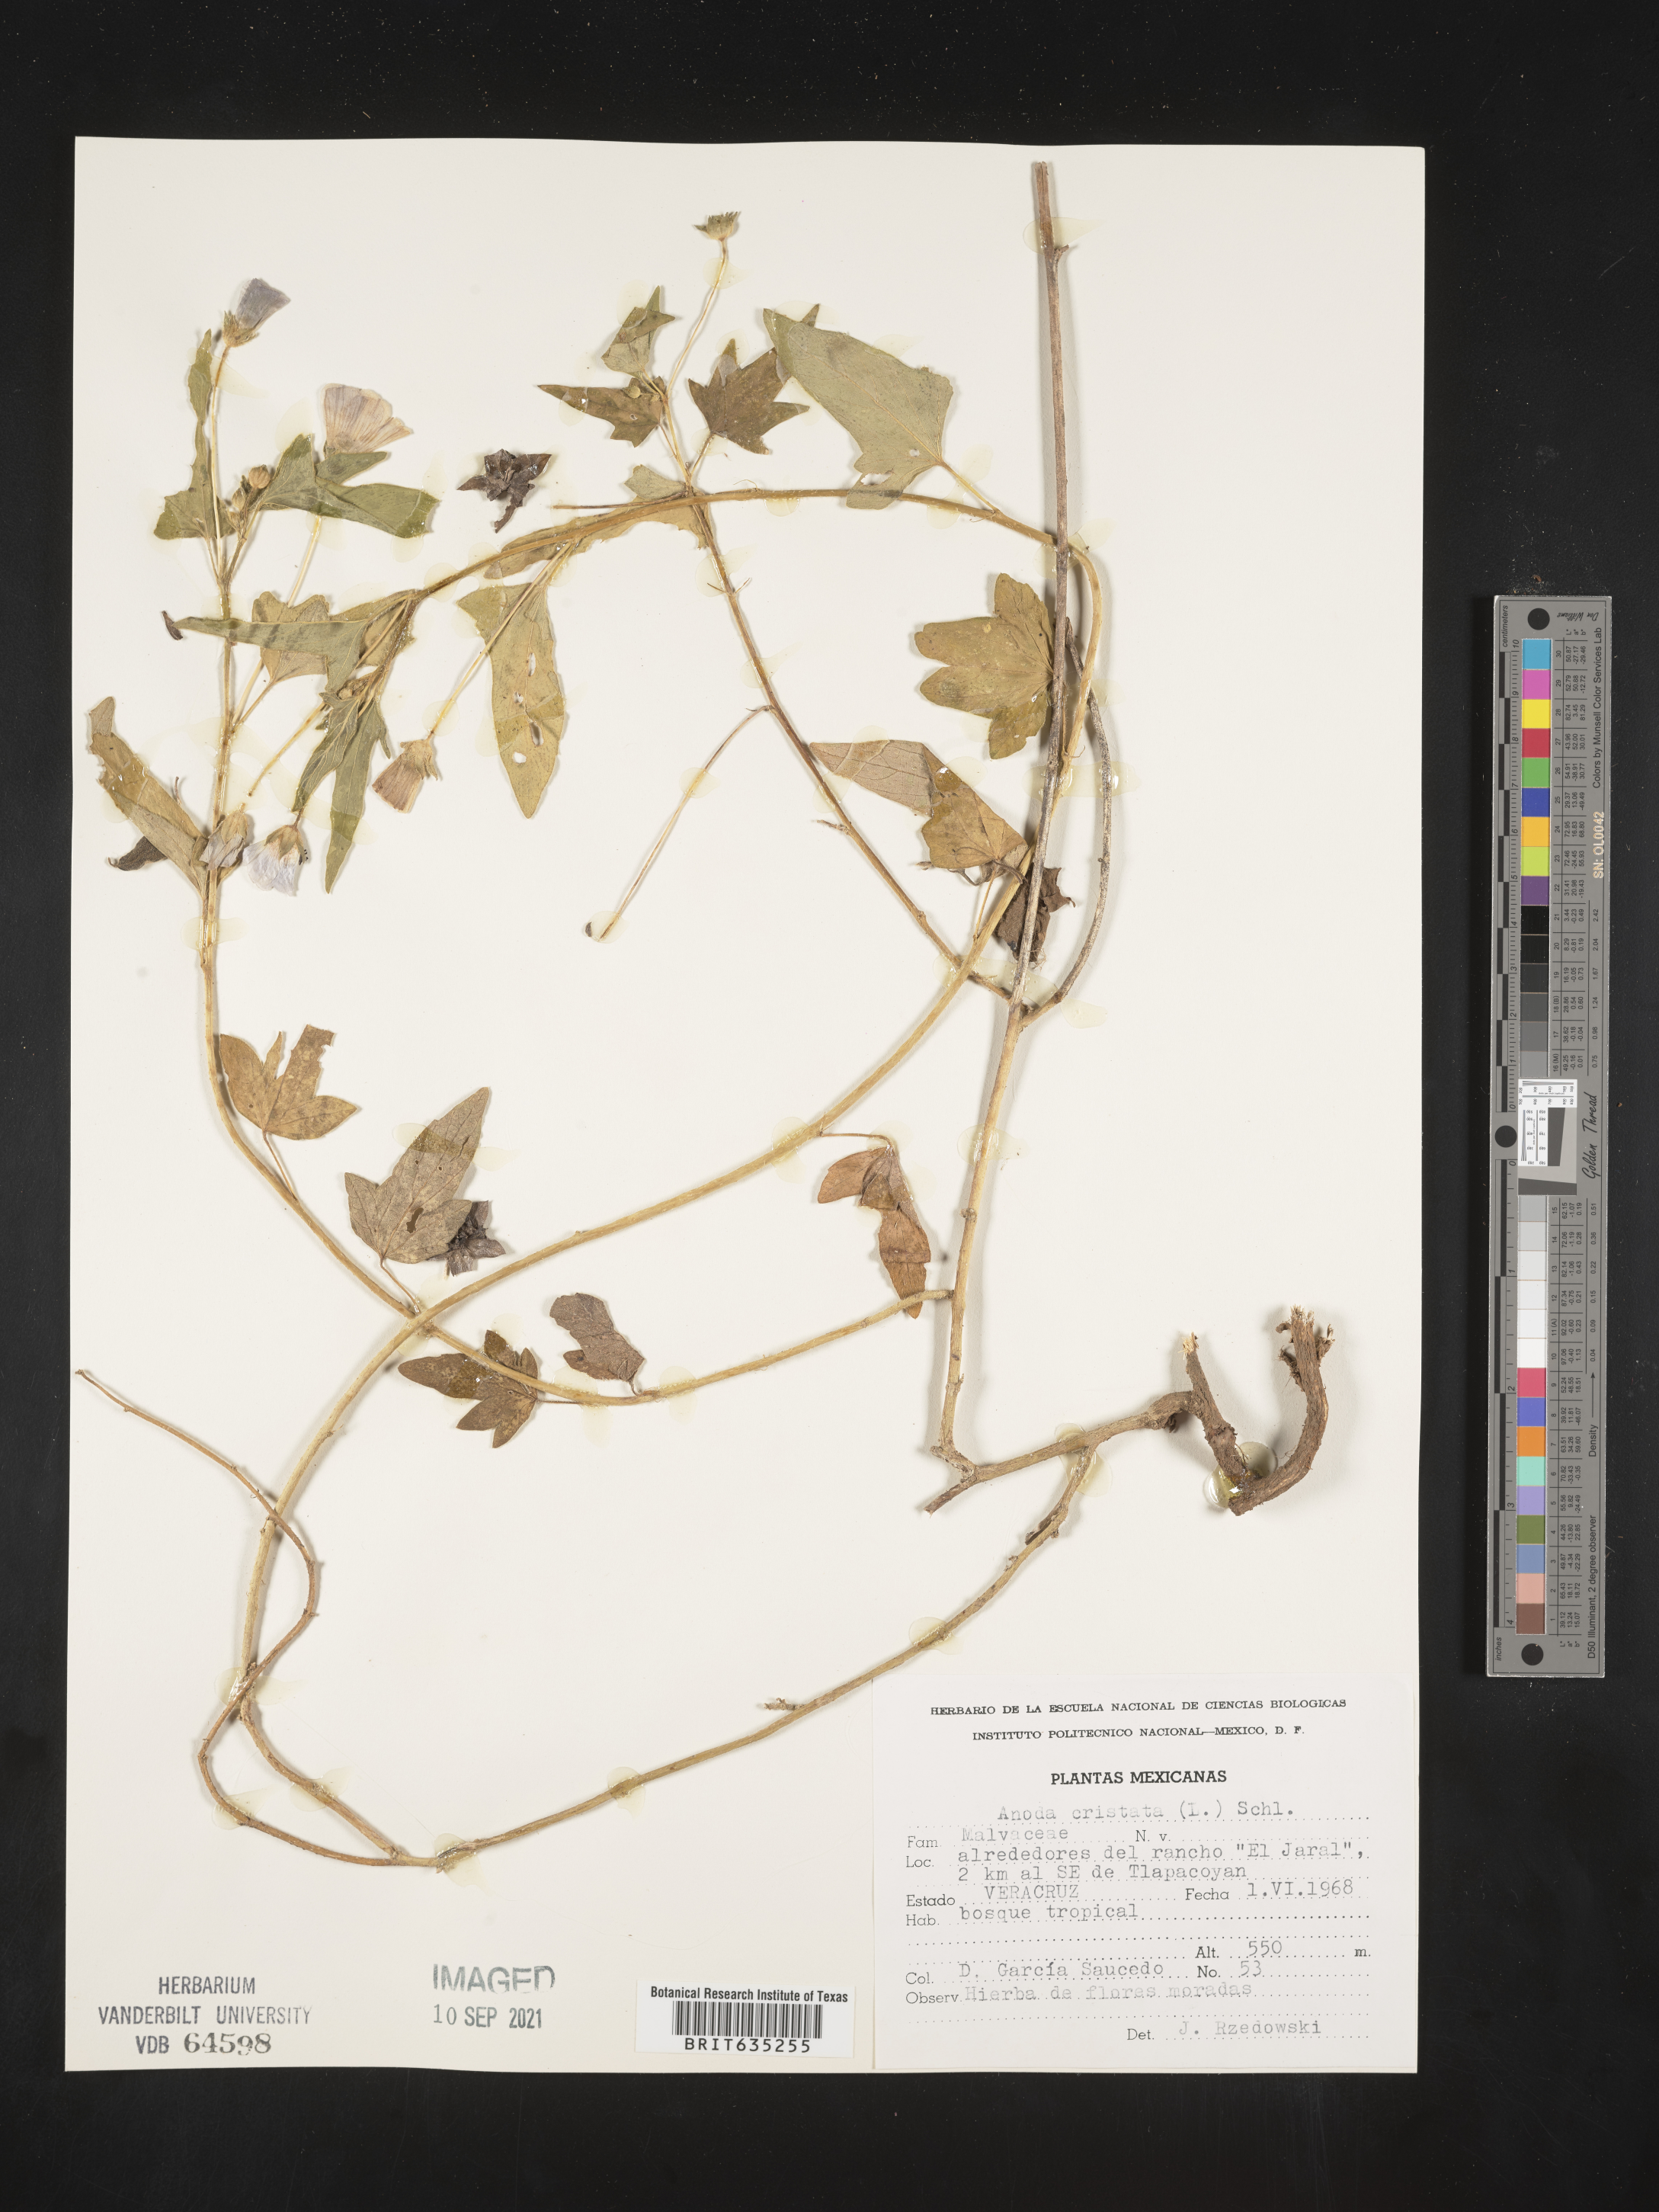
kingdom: Plantae
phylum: Tracheophyta
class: Magnoliopsida
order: Malvales
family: Malvaceae
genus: Anoda
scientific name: Anoda
